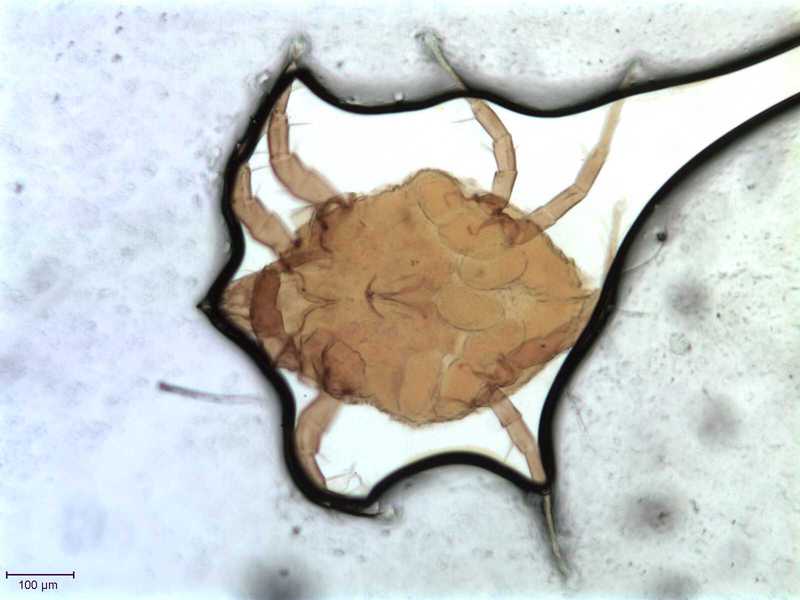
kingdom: Animalia
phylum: Arthropoda
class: Arachnida
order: Sarcoptiformes
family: Algophagidae
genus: Hericia
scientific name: Hericia fermentationis
